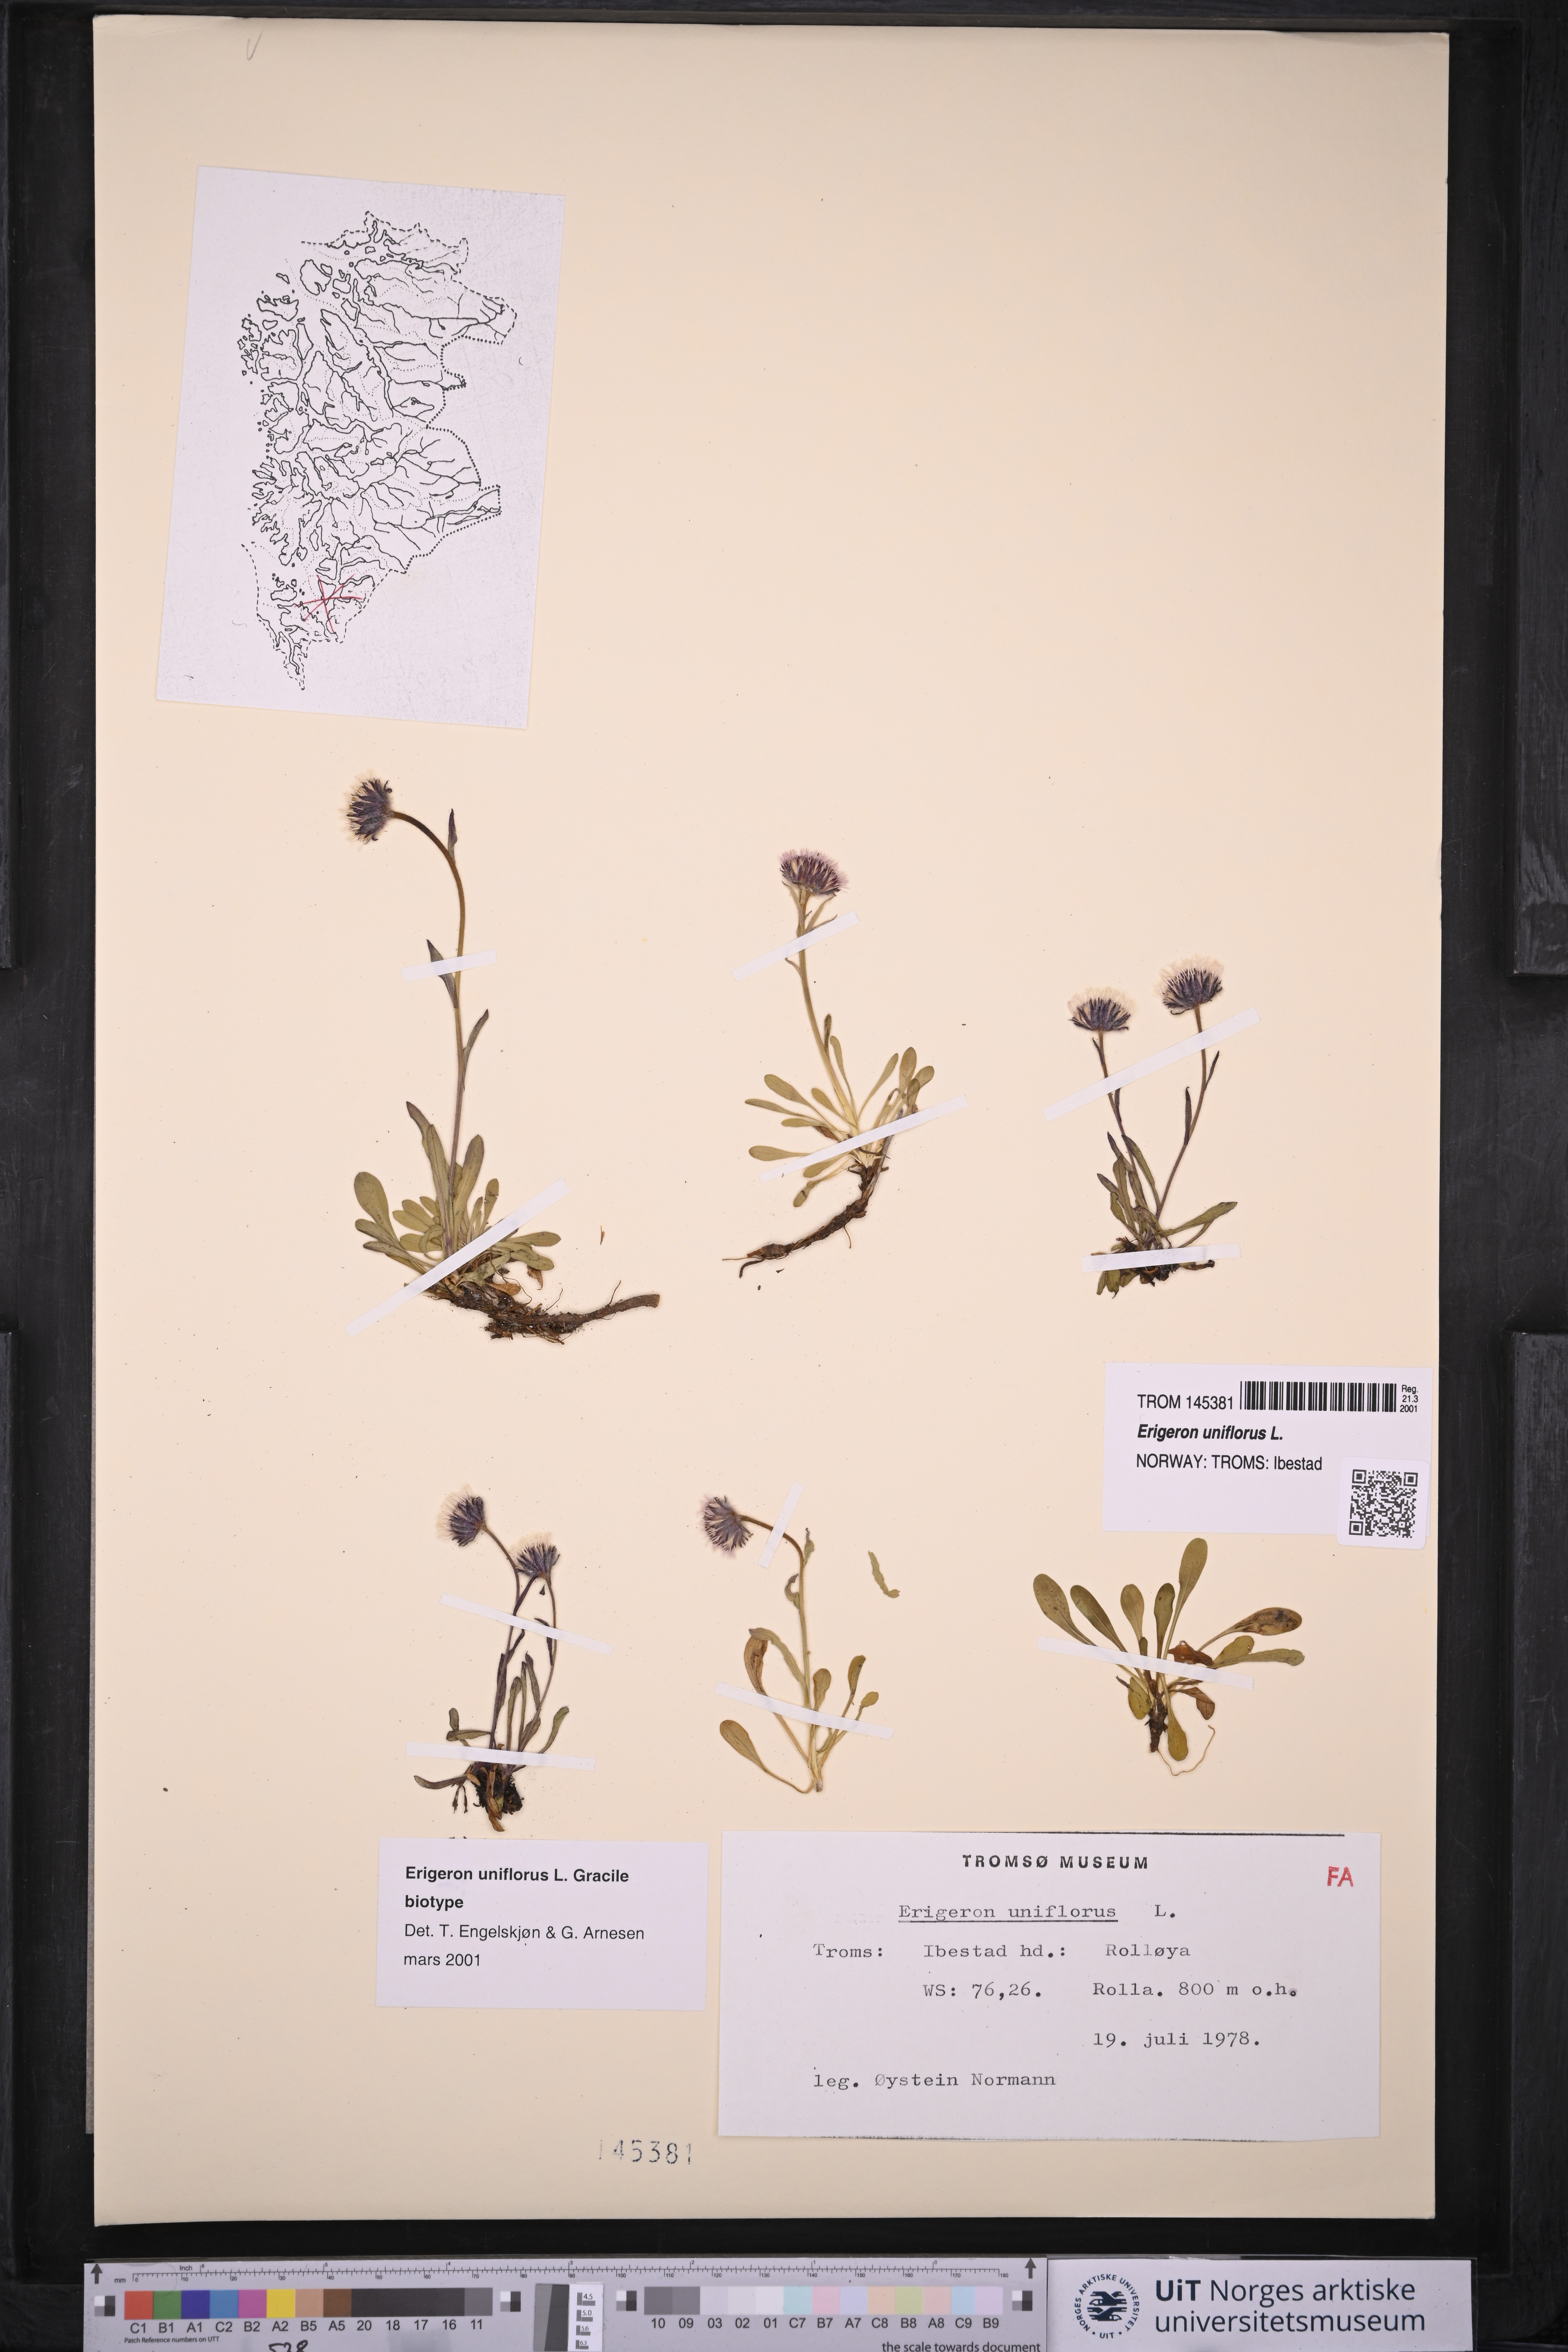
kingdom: Plantae
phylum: Tracheophyta
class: Magnoliopsida
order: Asterales
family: Asteraceae
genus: Erigeron
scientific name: Erigeron uniflorus
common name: Northern daisy
